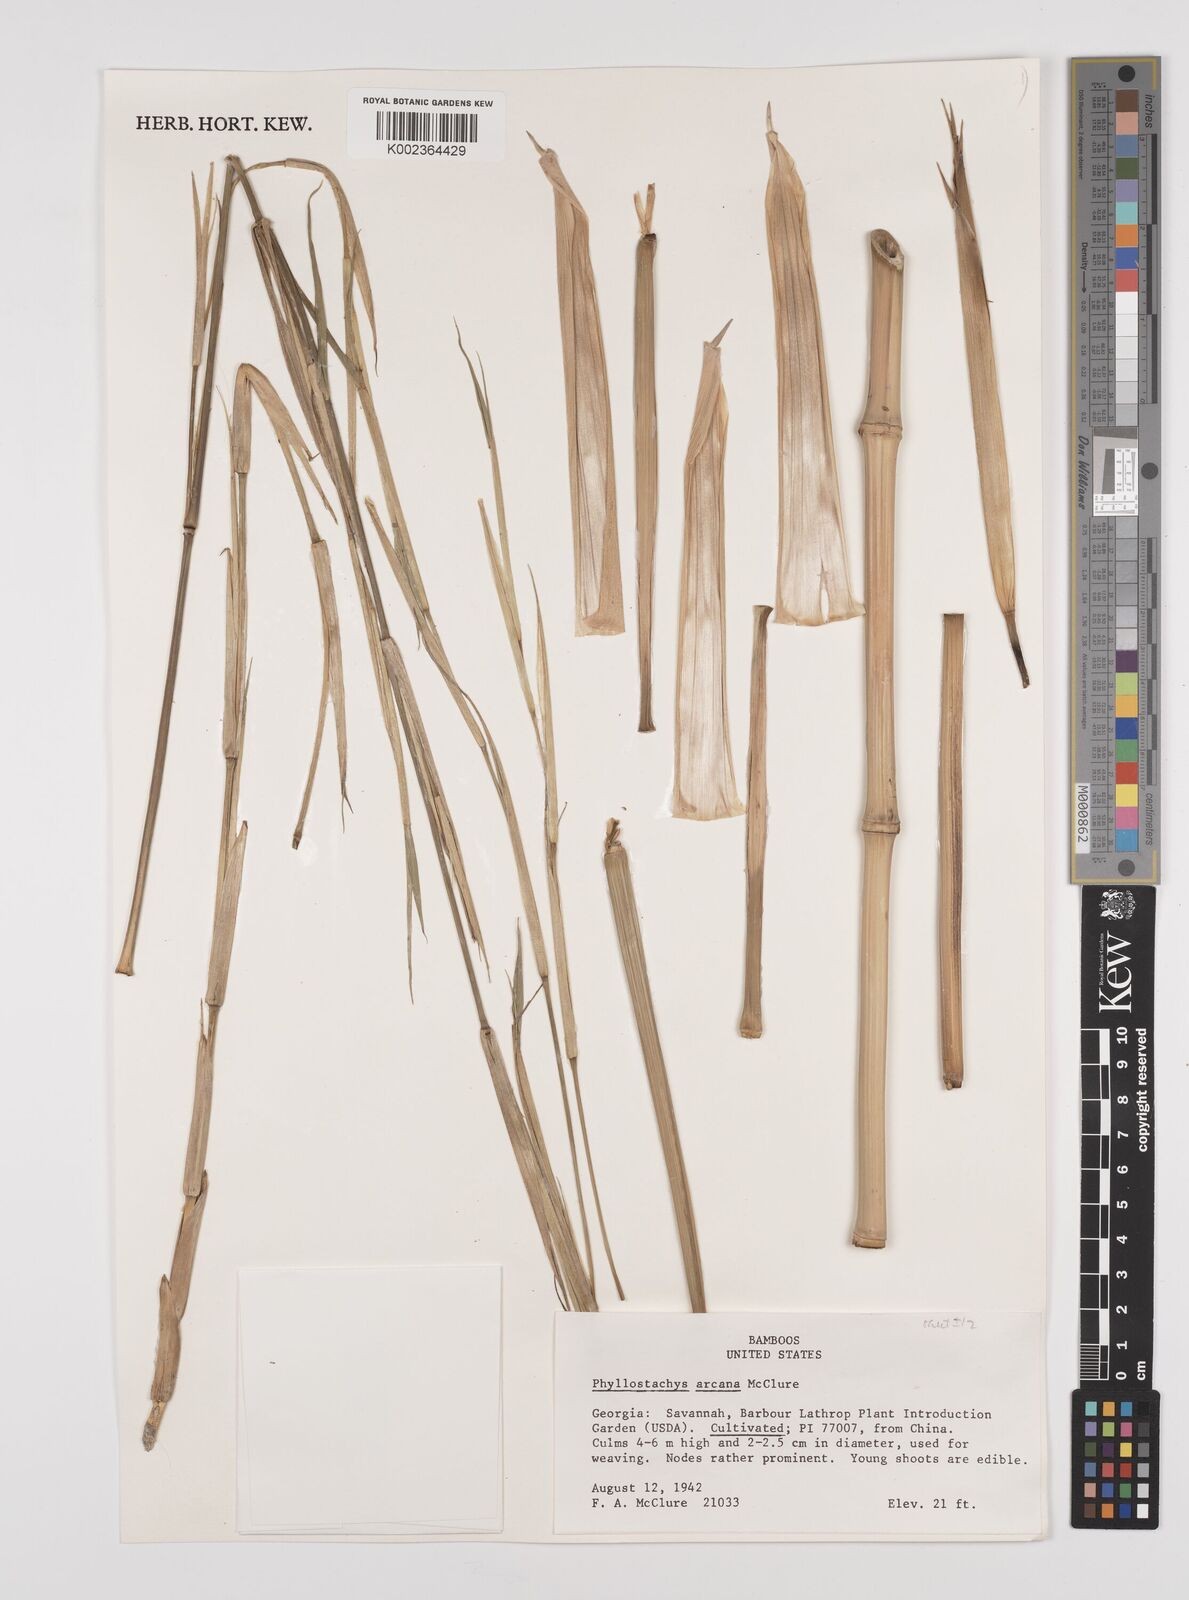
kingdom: Plantae
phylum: Tracheophyta
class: Liliopsida
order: Poales
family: Poaceae
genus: Phyllostachys
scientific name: Phyllostachys arcana
